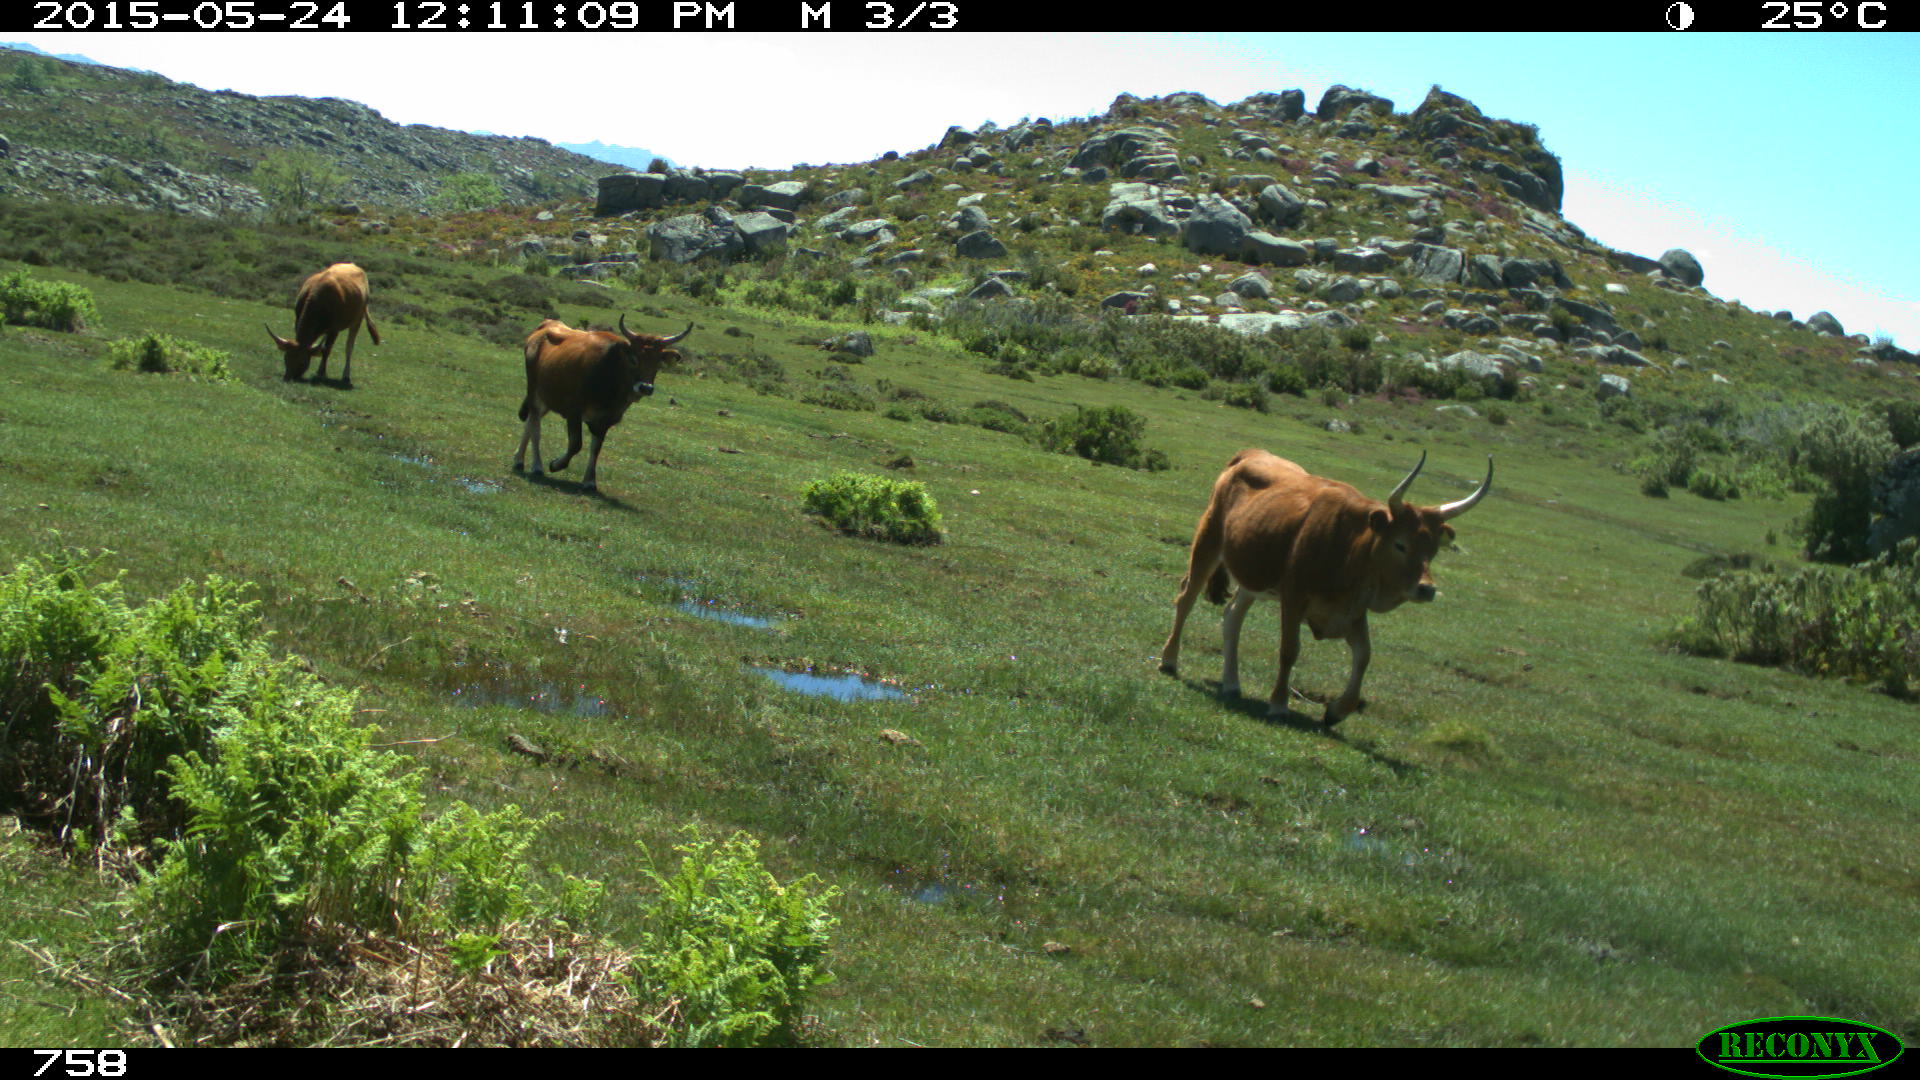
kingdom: Animalia
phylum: Chordata
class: Mammalia
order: Artiodactyla
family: Bovidae
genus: Bos
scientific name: Bos taurus
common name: Domesticated cattle
